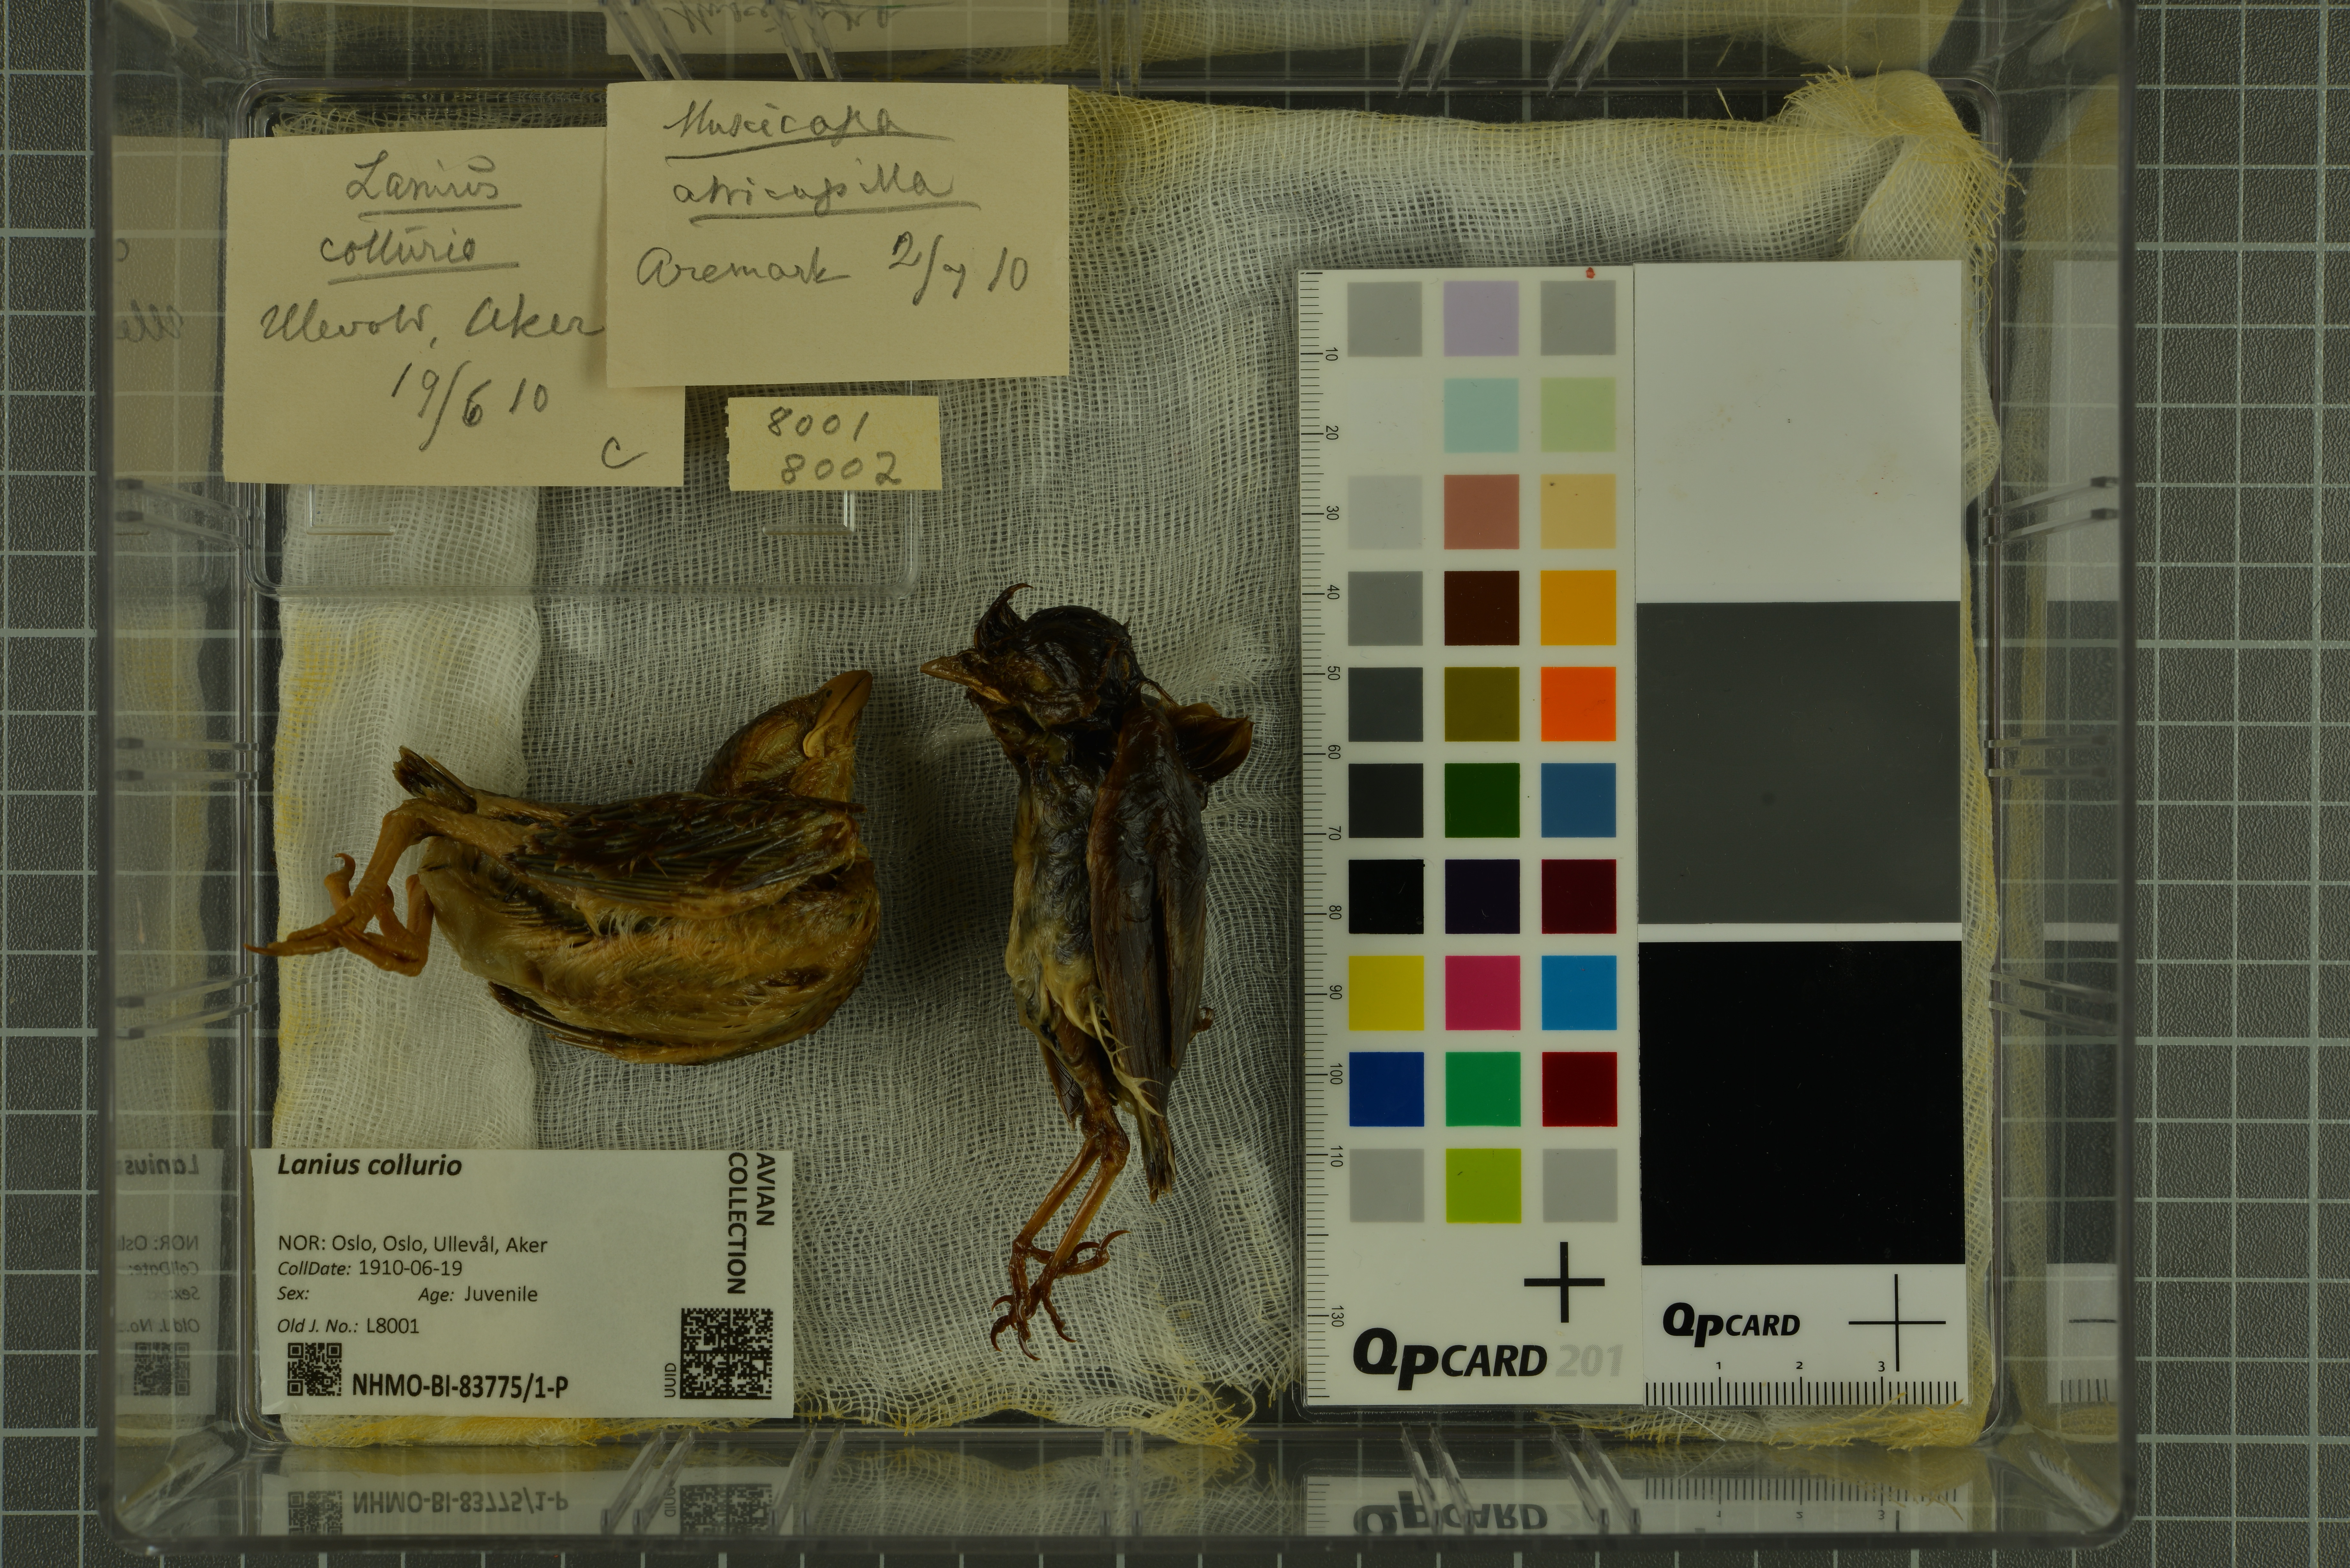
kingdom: Animalia
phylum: Chordata
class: Aves
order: Passeriformes
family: Laniidae
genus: Lanius
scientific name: Lanius collurio
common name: Red-backed shrike
